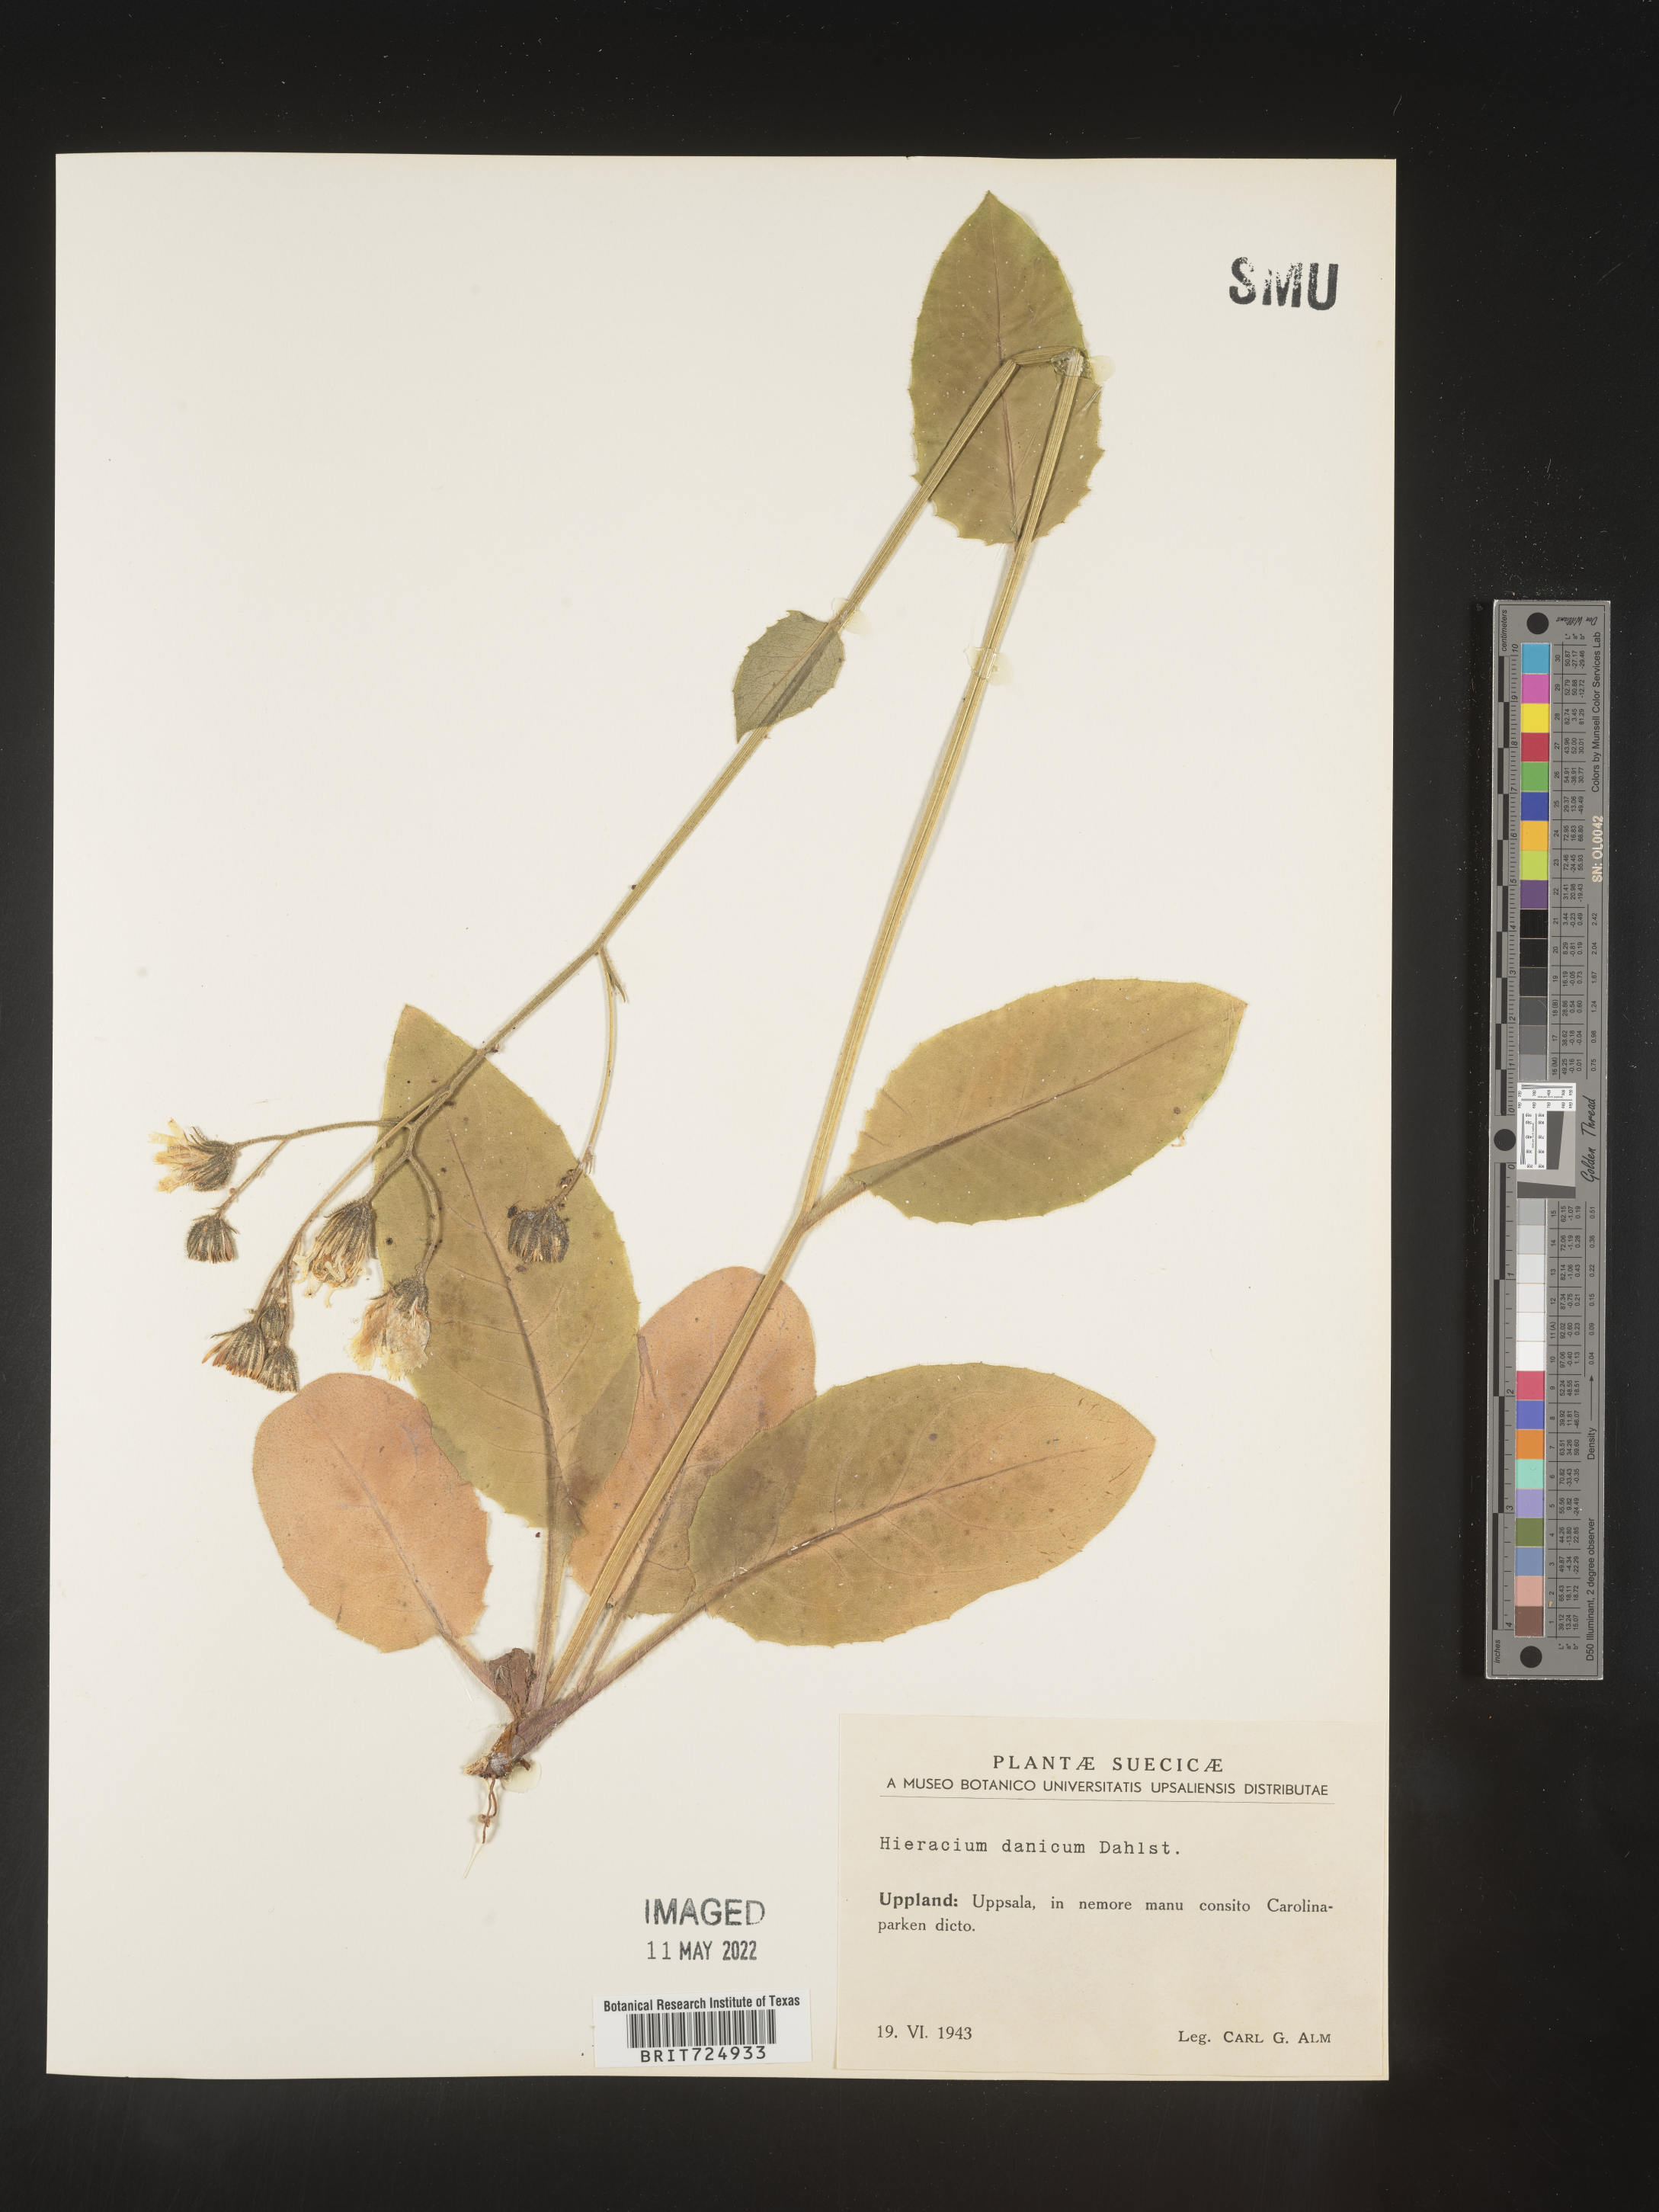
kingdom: Plantae
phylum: Tracheophyta
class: Magnoliopsida
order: Asterales
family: Asteraceae
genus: Hieracium
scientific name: Hieracium
